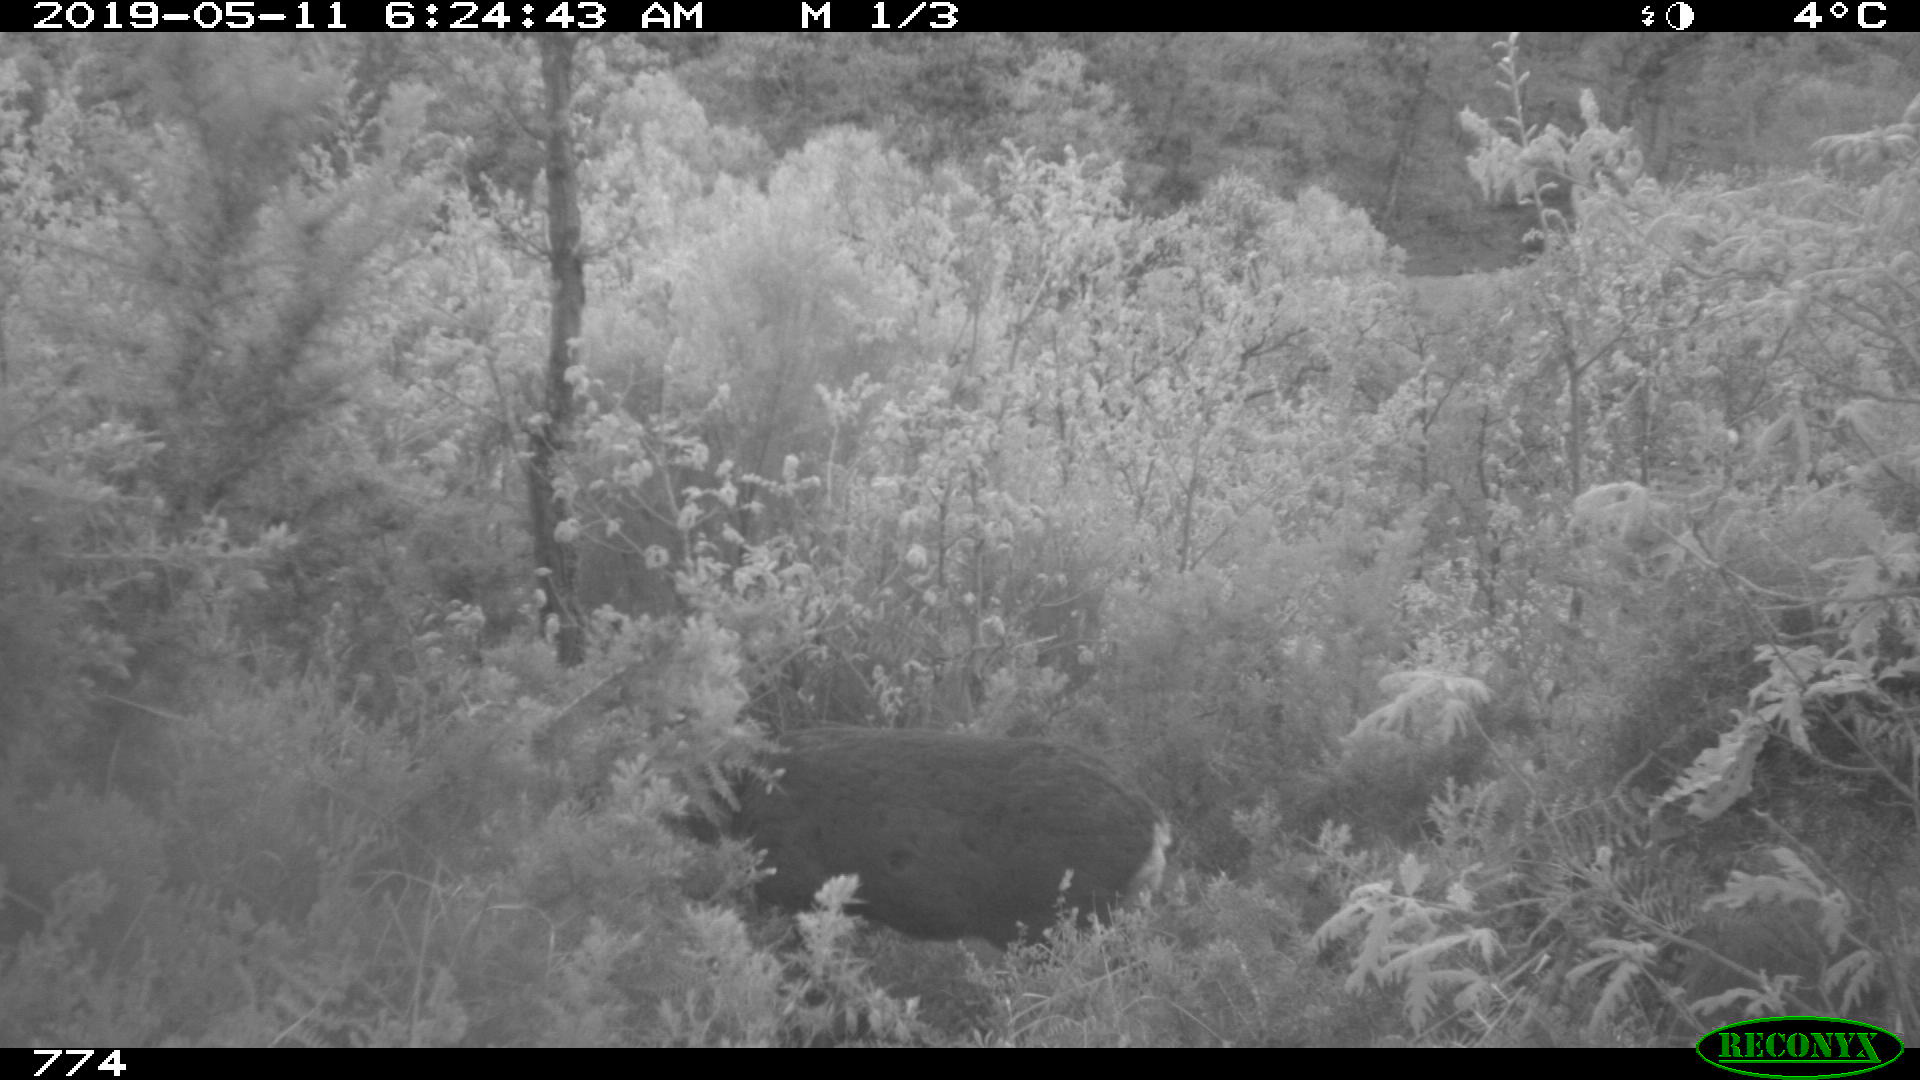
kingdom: Animalia
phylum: Chordata
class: Mammalia
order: Artiodactyla
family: Cervidae
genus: Capreolus
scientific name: Capreolus capreolus
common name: Western roe deer
